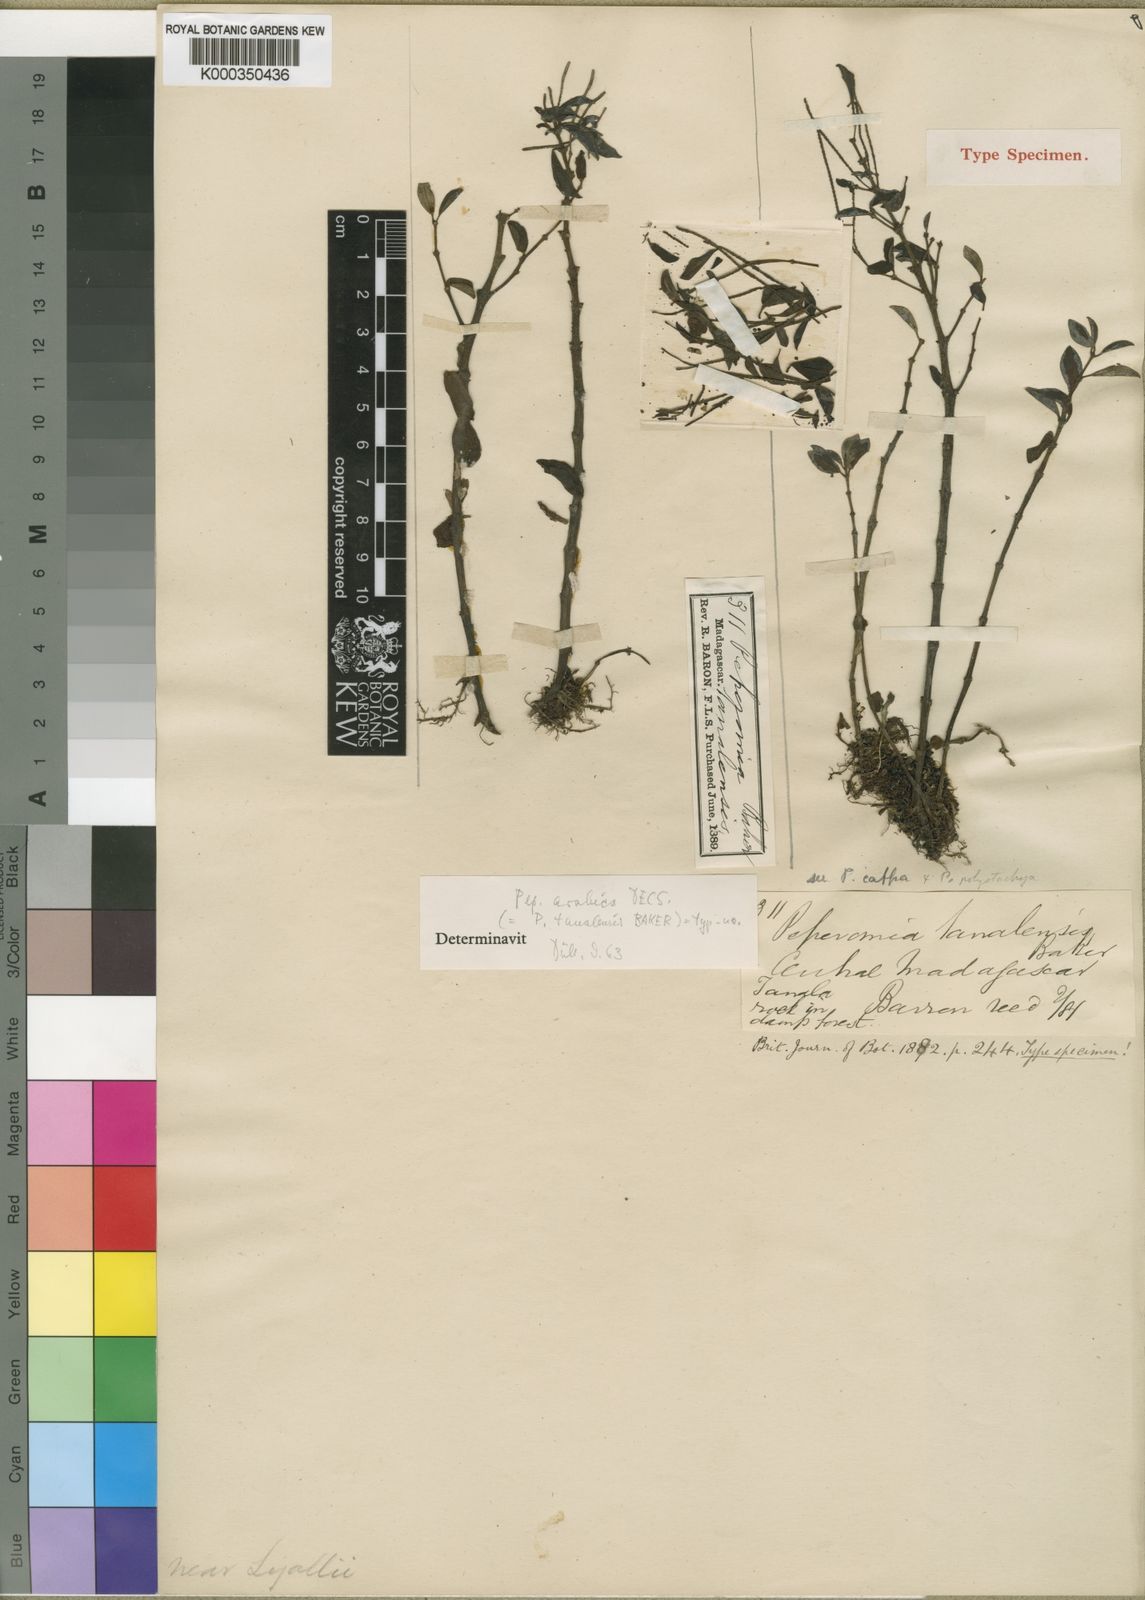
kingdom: Plantae
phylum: Tracheophyta
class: Magnoliopsida
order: Piperales
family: Piperaceae
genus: Peperomia
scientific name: Peperomia leptostachya
